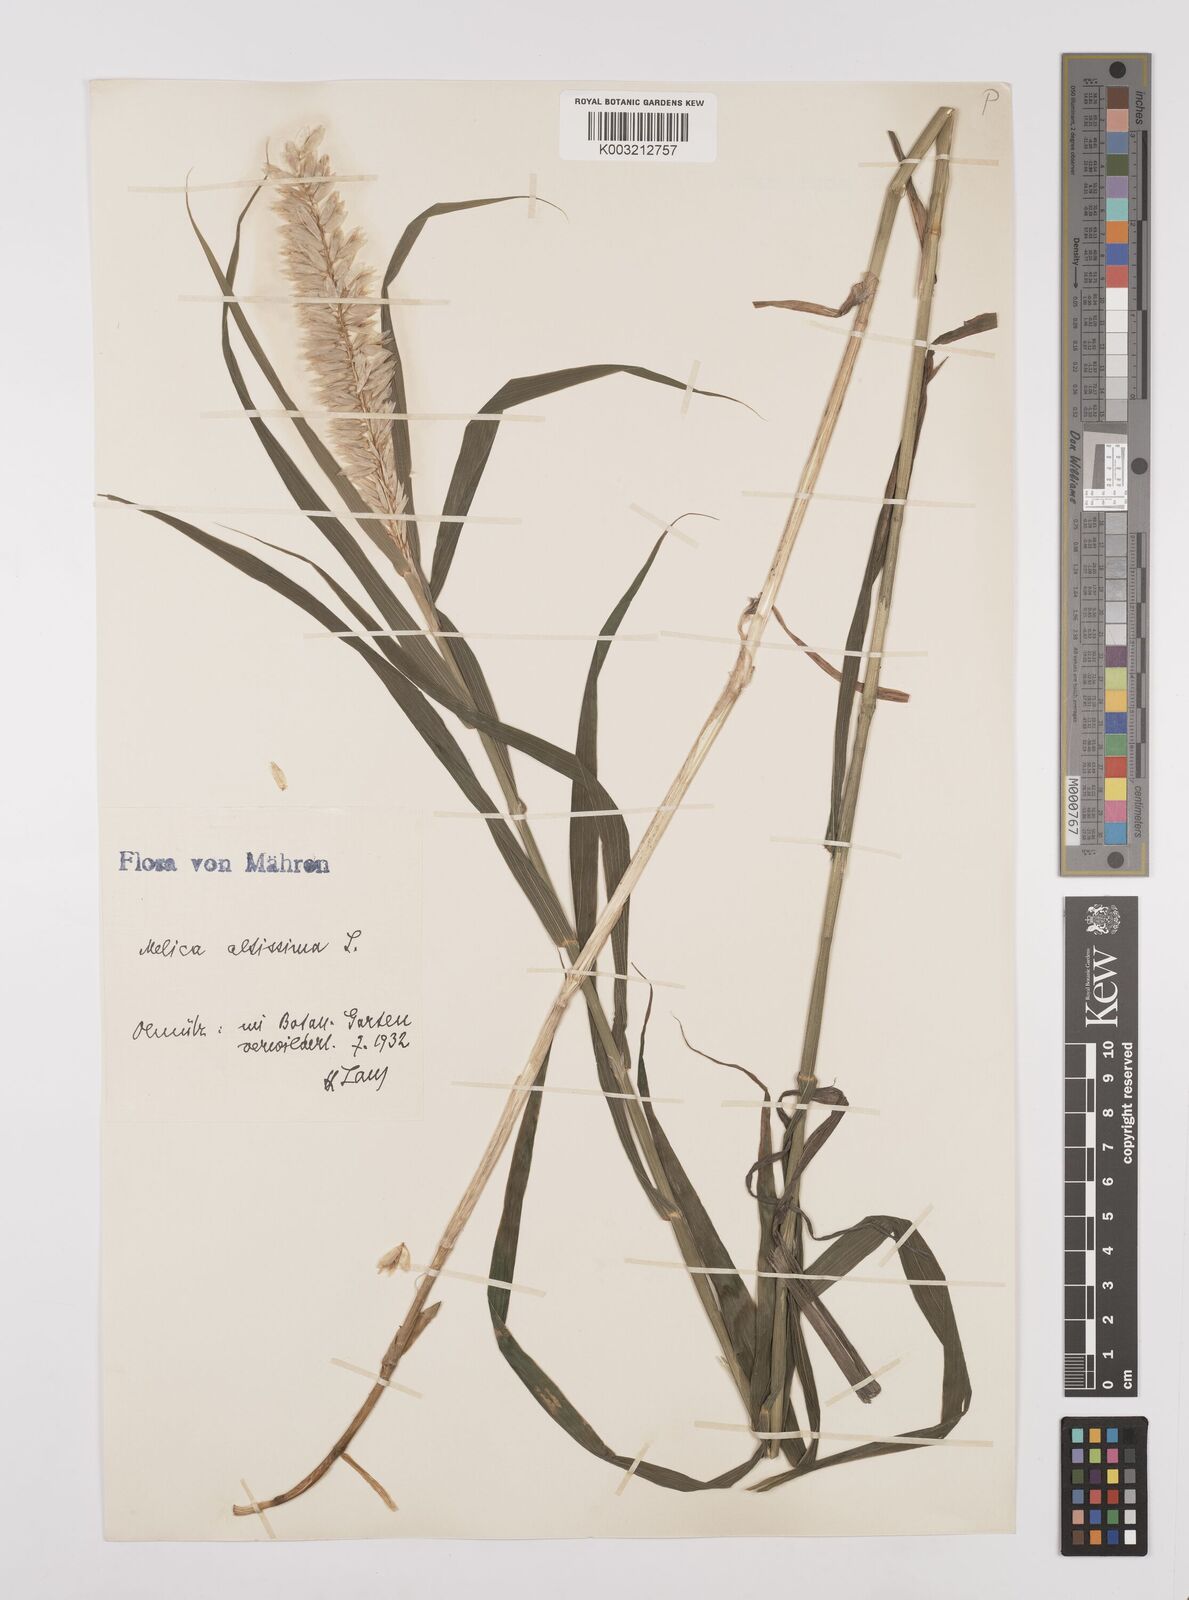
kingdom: Plantae
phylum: Tracheophyta
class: Liliopsida
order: Poales
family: Poaceae
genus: Melica
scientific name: Melica altissima
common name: Siberian melicgrass
